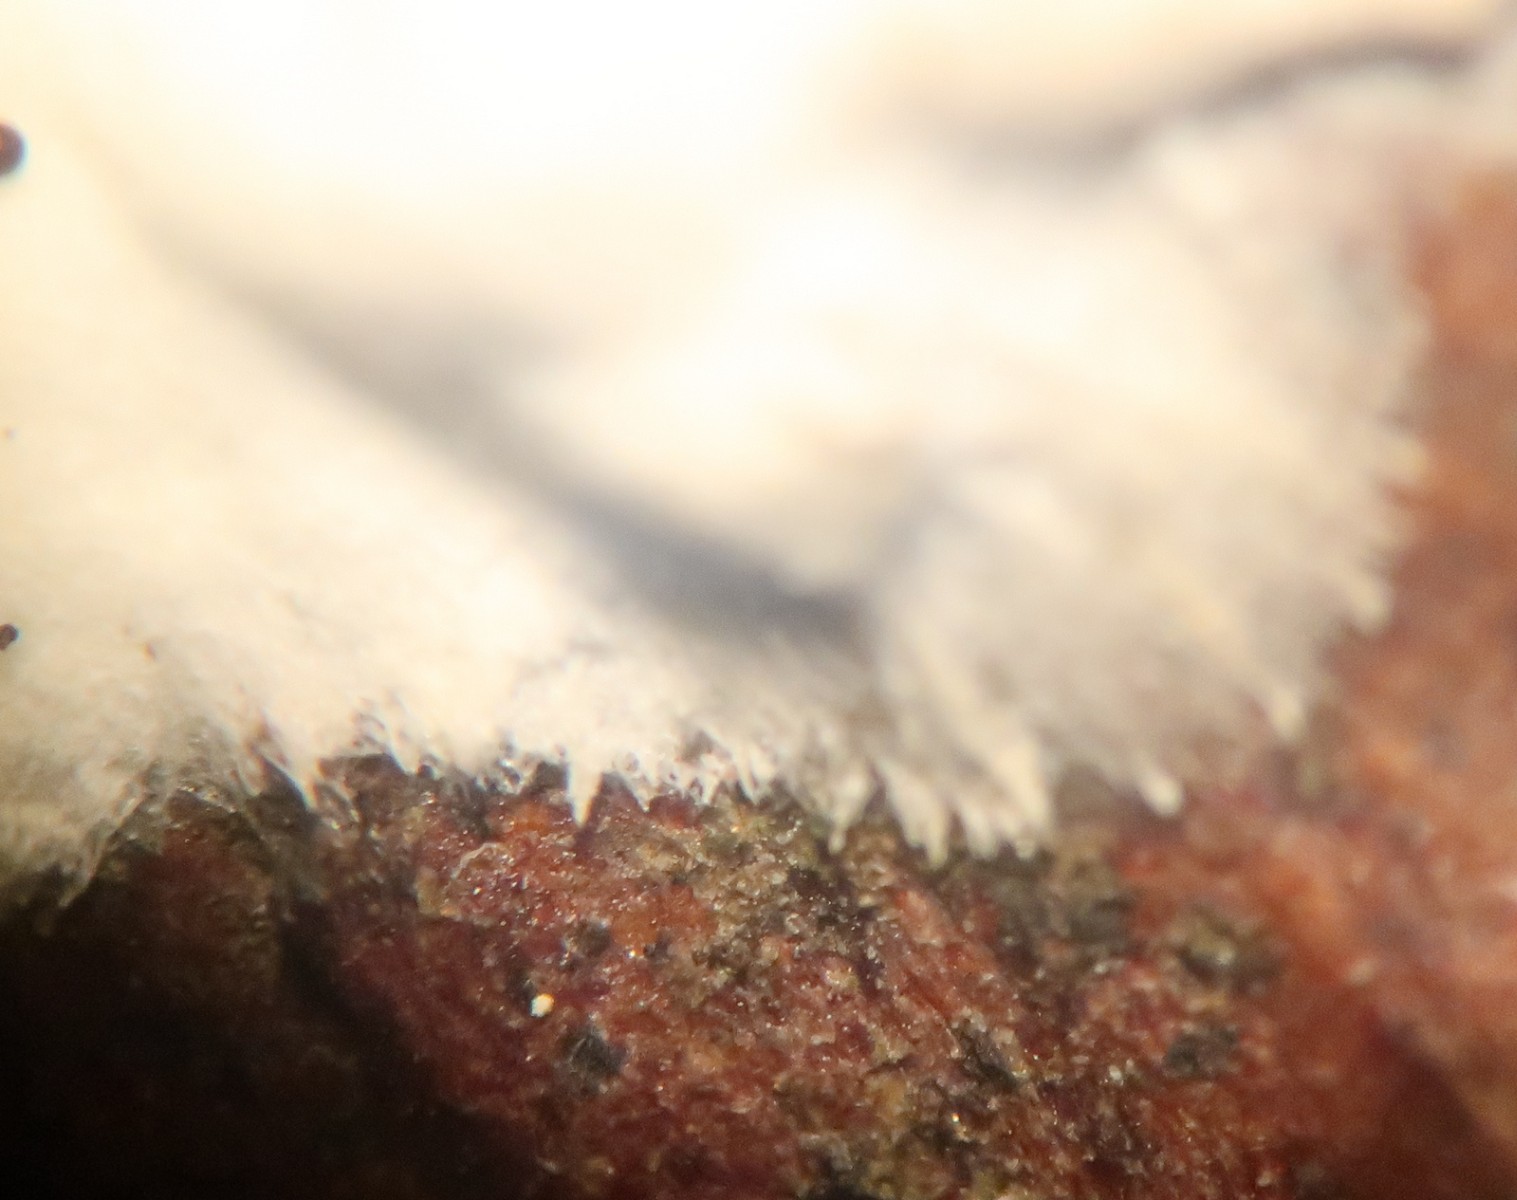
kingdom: Fungi
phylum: Basidiomycota
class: Agaricomycetes
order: Sebacinales
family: Sebacinaceae
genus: Sebacina
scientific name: Sebacina
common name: bævretalg
